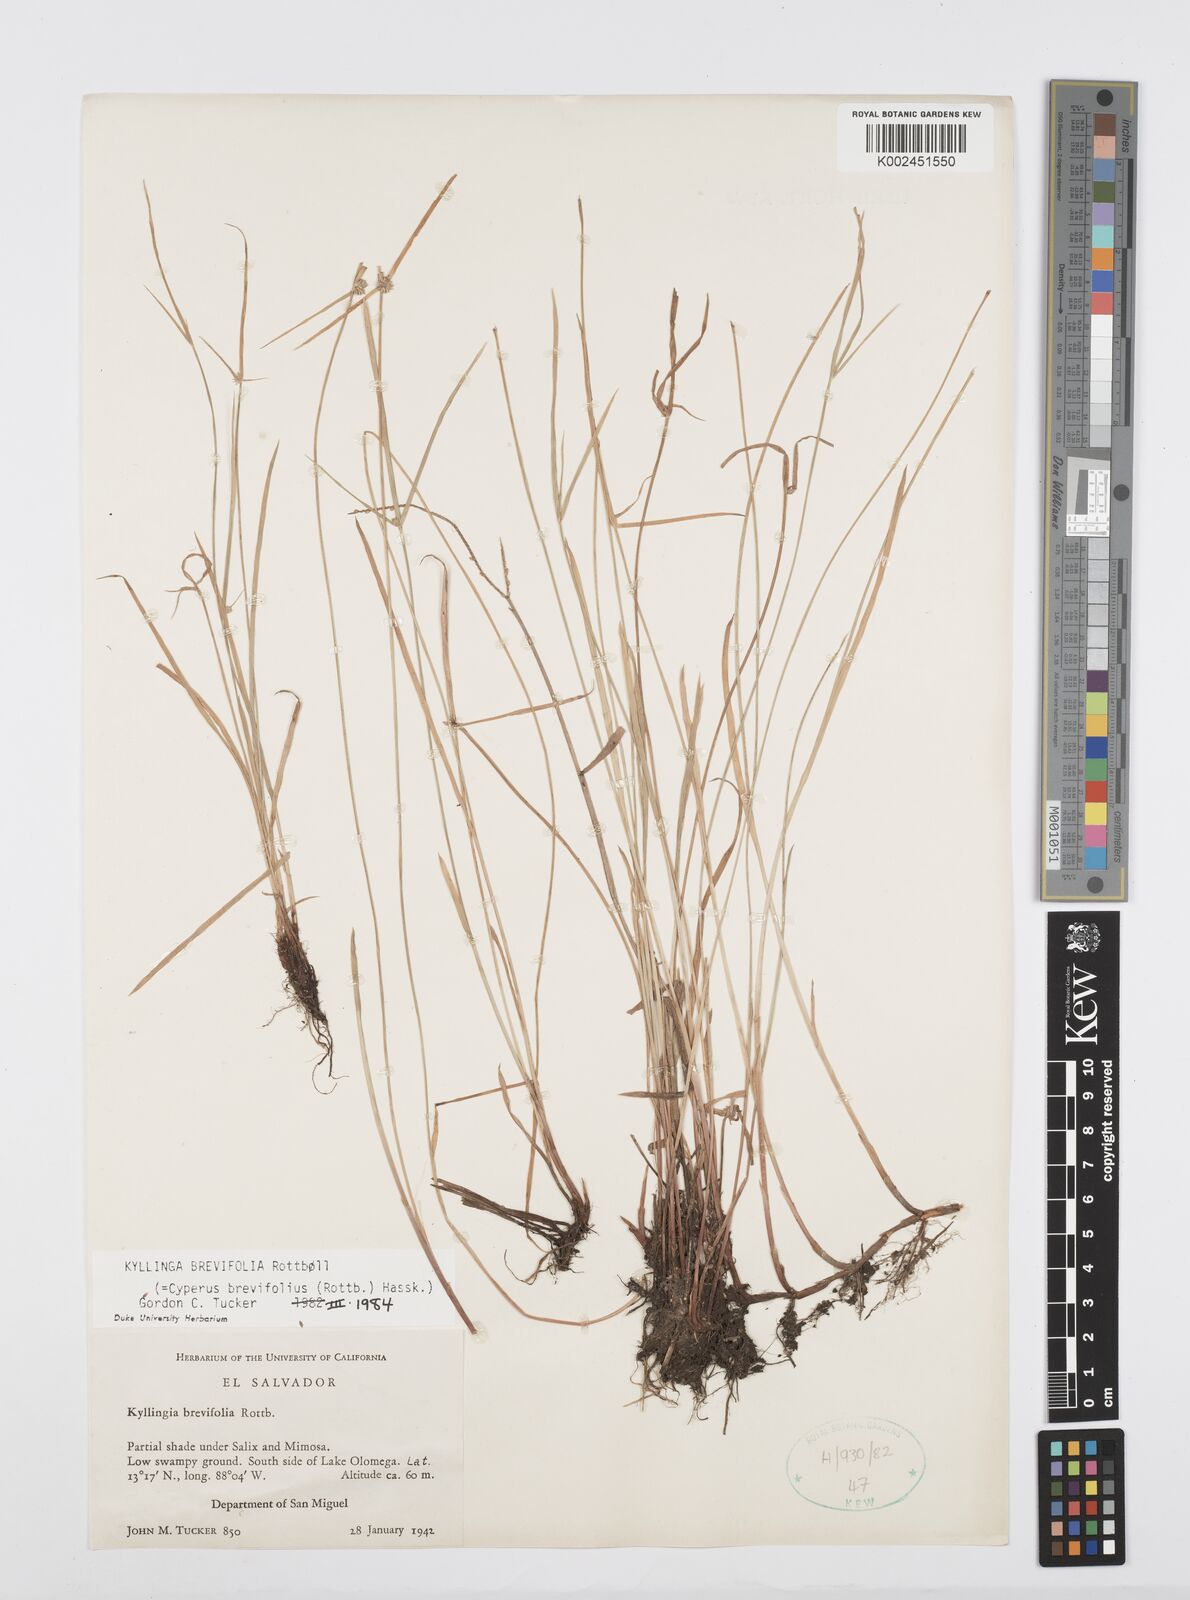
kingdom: Plantae
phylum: Tracheophyta
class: Liliopsida
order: Poales
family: Cyperaceae
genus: Cyperus
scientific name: Cyperus brevifolius
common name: Globe kyllinga
